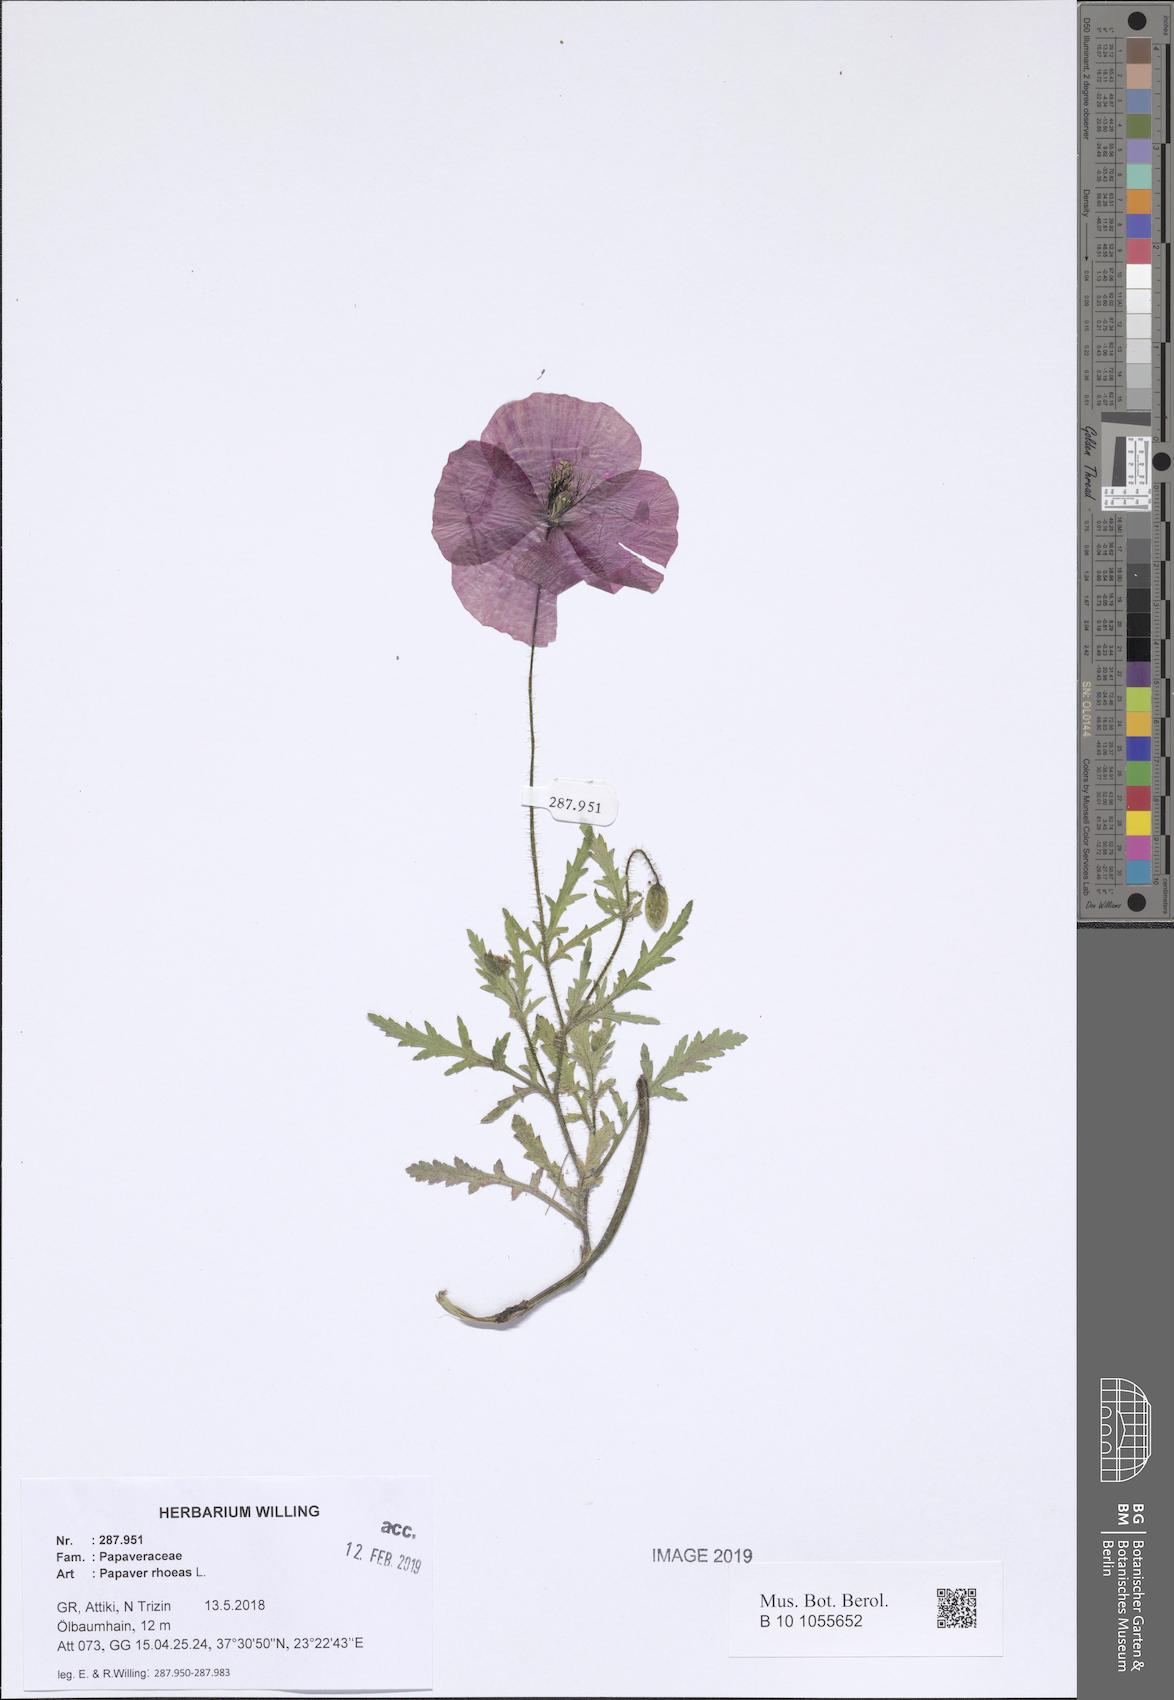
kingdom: Plantae
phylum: Tracheophyta
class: Magnoliopsida
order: Ranunculales
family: Papaveraceae
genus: Papaver
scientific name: Papaver rhoeas
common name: Corn poppy
